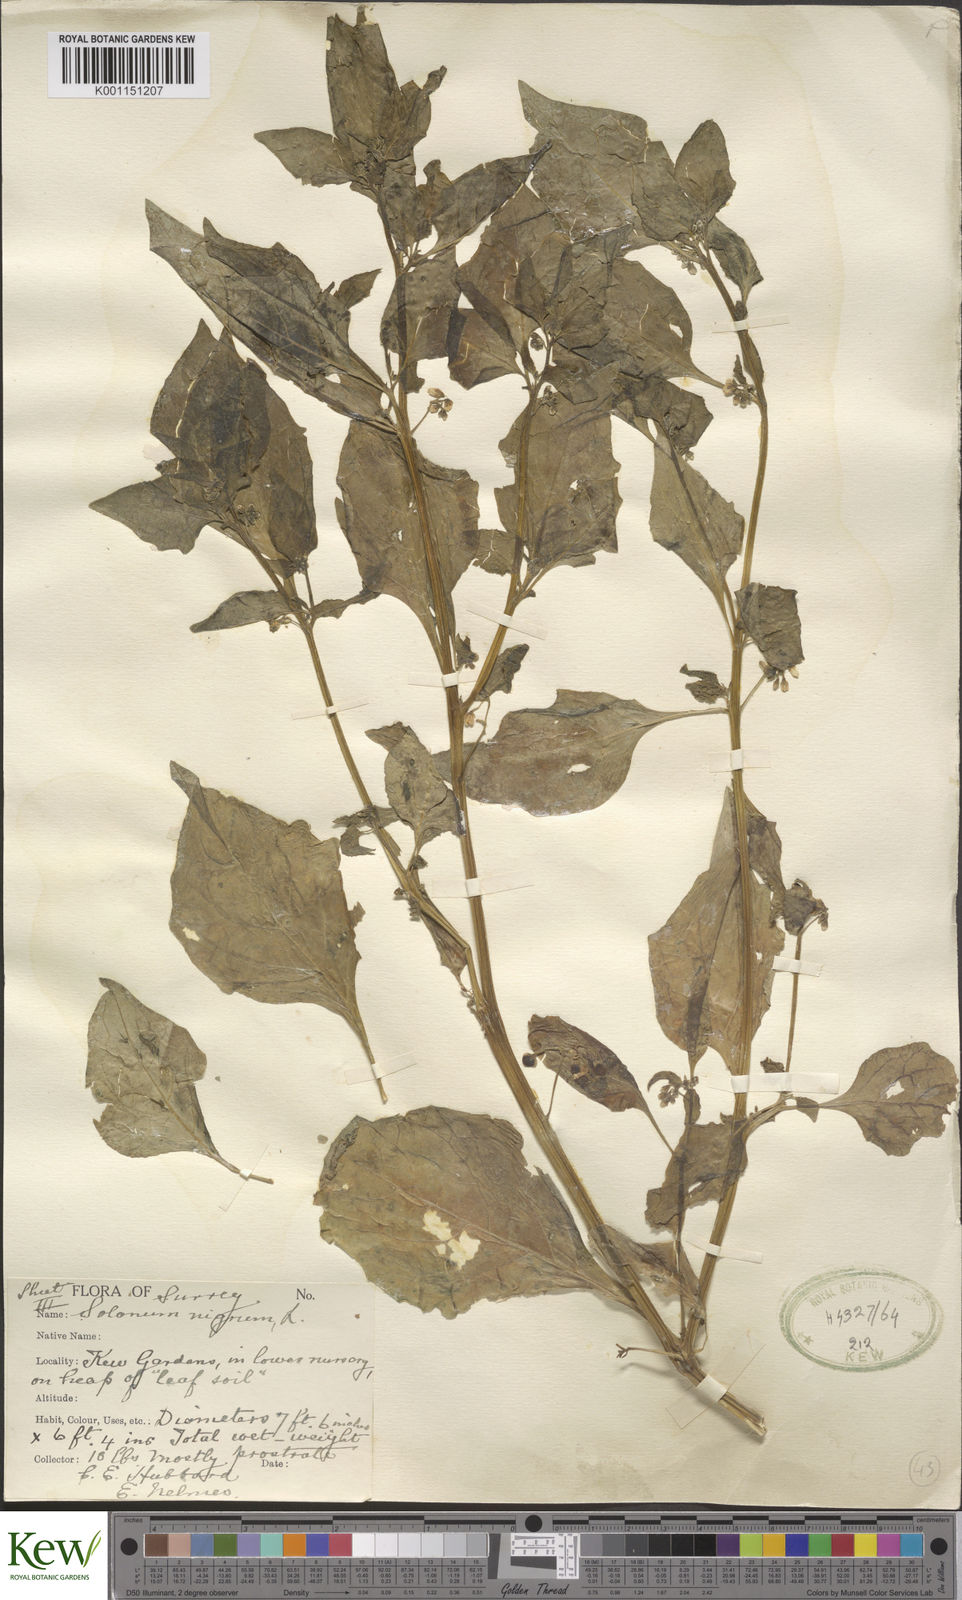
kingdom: Plantae
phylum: Tracheophyta
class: Magnoliopsida
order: Solanales
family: Solanaceae
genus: Solanum
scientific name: Solanum nigrum
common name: Black nightshade
